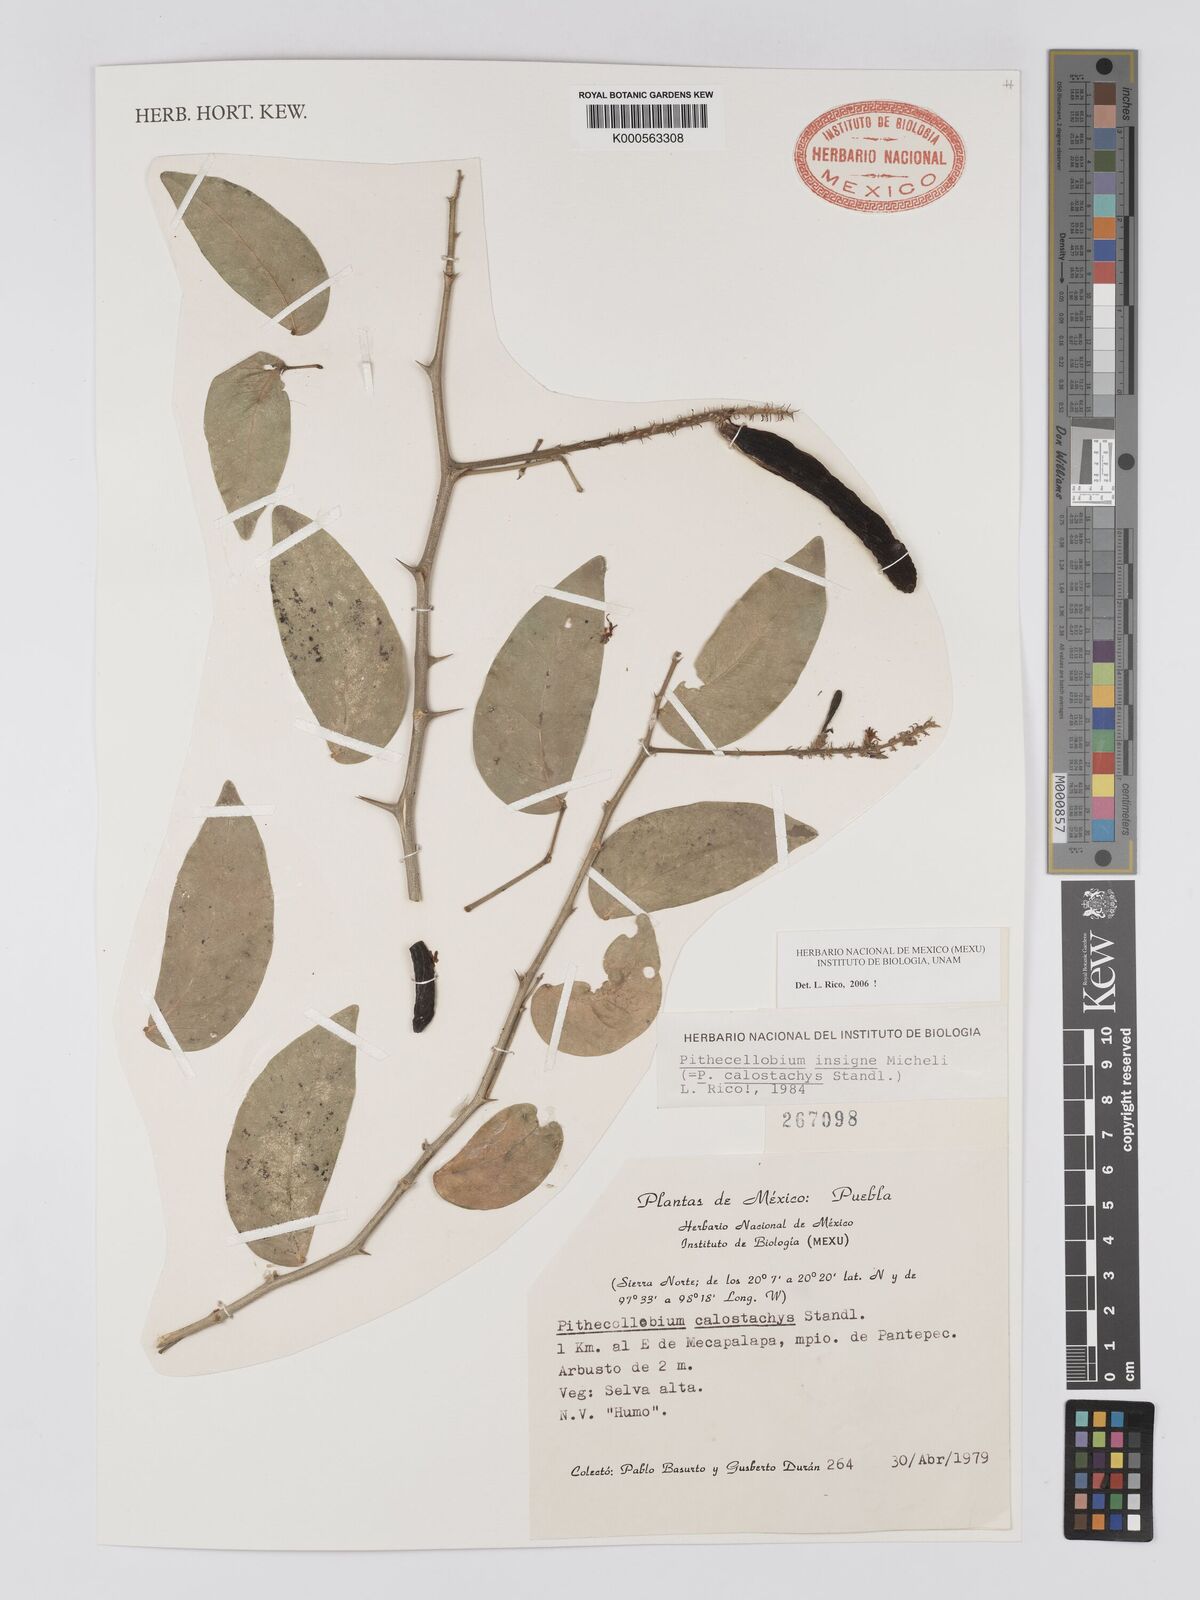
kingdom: Plantae
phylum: Tracheophyta
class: Magnoliopsida
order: Fabales
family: Fabaceae
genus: Pithecellobium
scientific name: Pithecellobium lanceolatum
